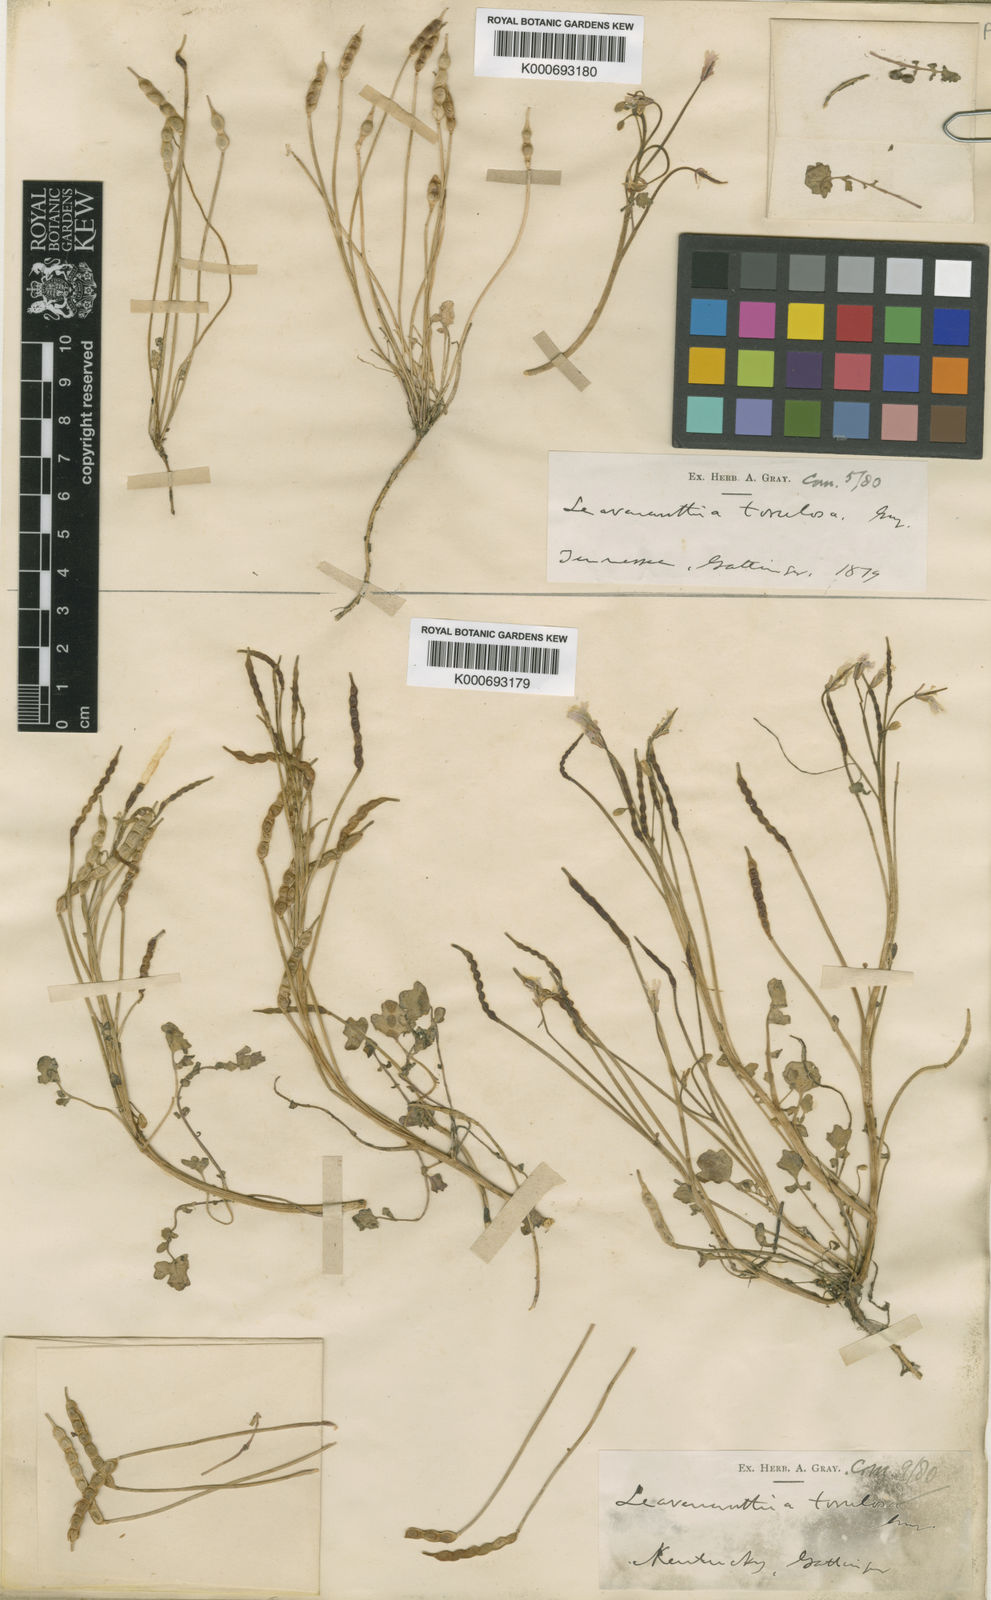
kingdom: Plantae
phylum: Tracheophyta
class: Magnoliopsida
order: Brassicales
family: Brassicaceae
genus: Leavenworthia
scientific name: Leavenworthia torulosa
